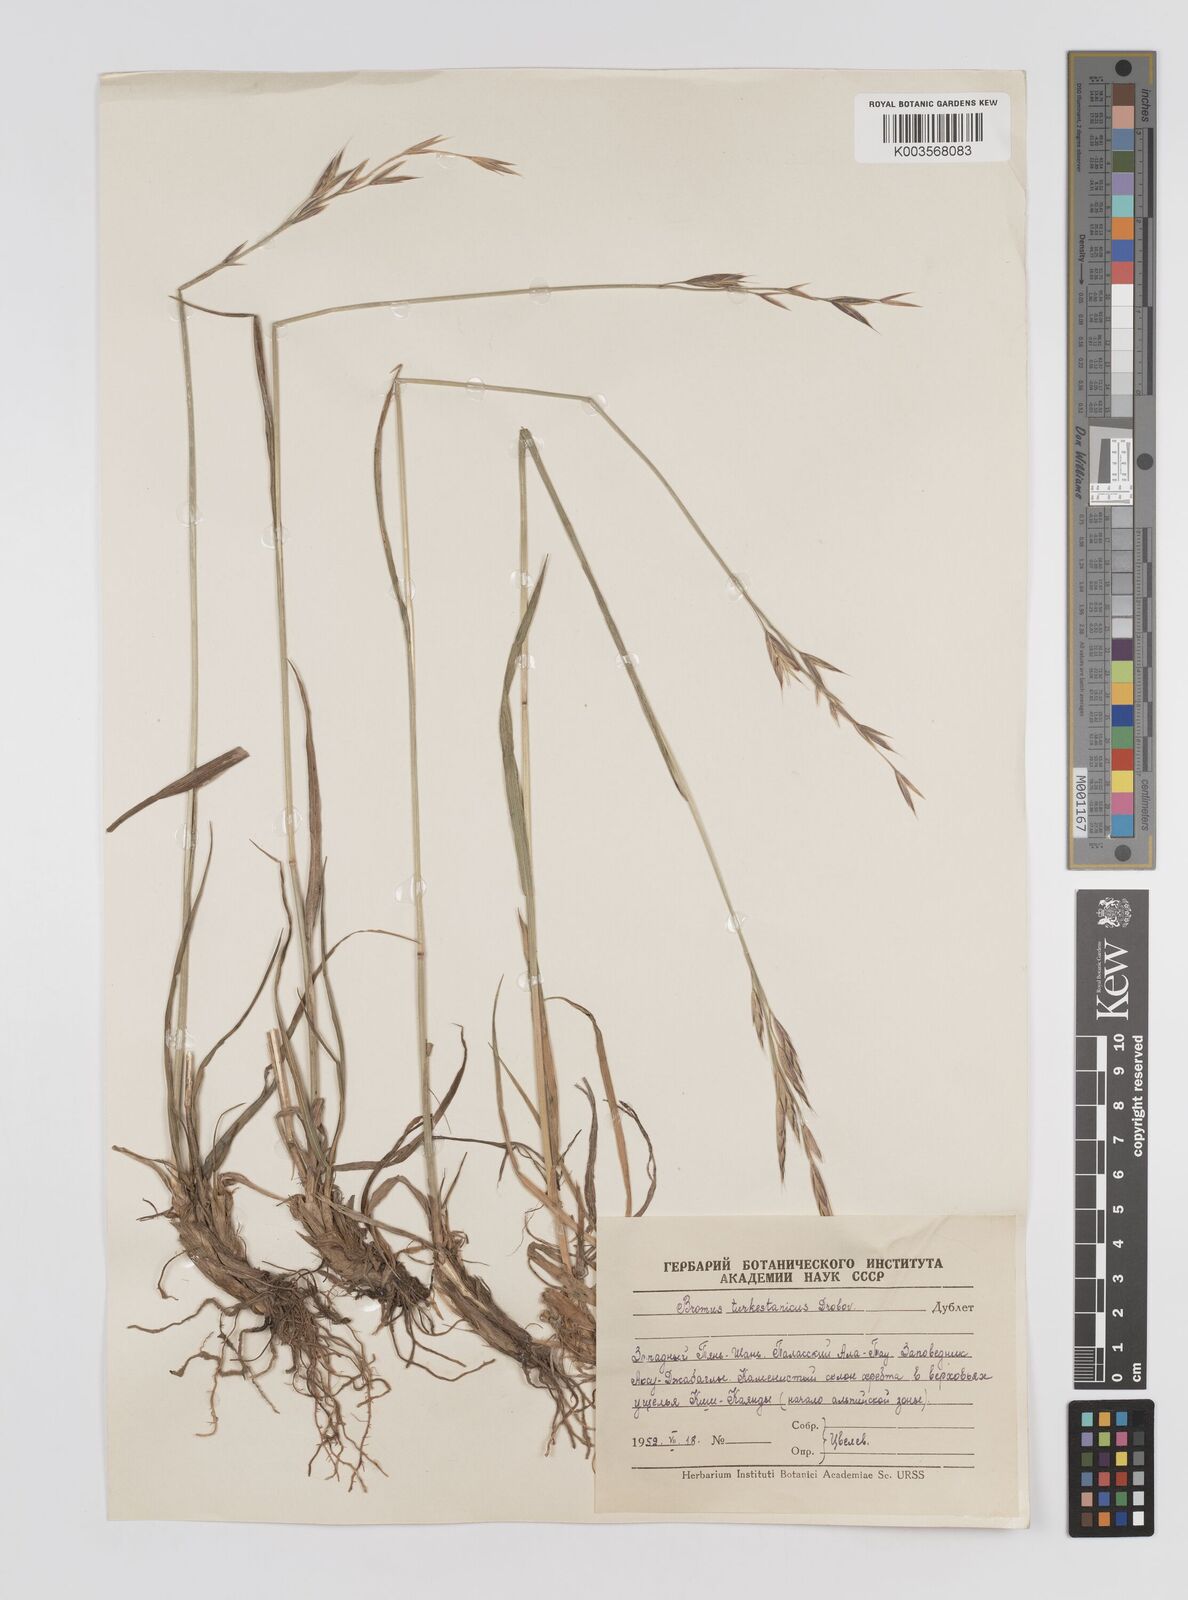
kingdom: Plantae
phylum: Tracheophyta
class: Liliopsida
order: Poales
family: Poaceae
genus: Bromus
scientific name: Bromus paulsenii
